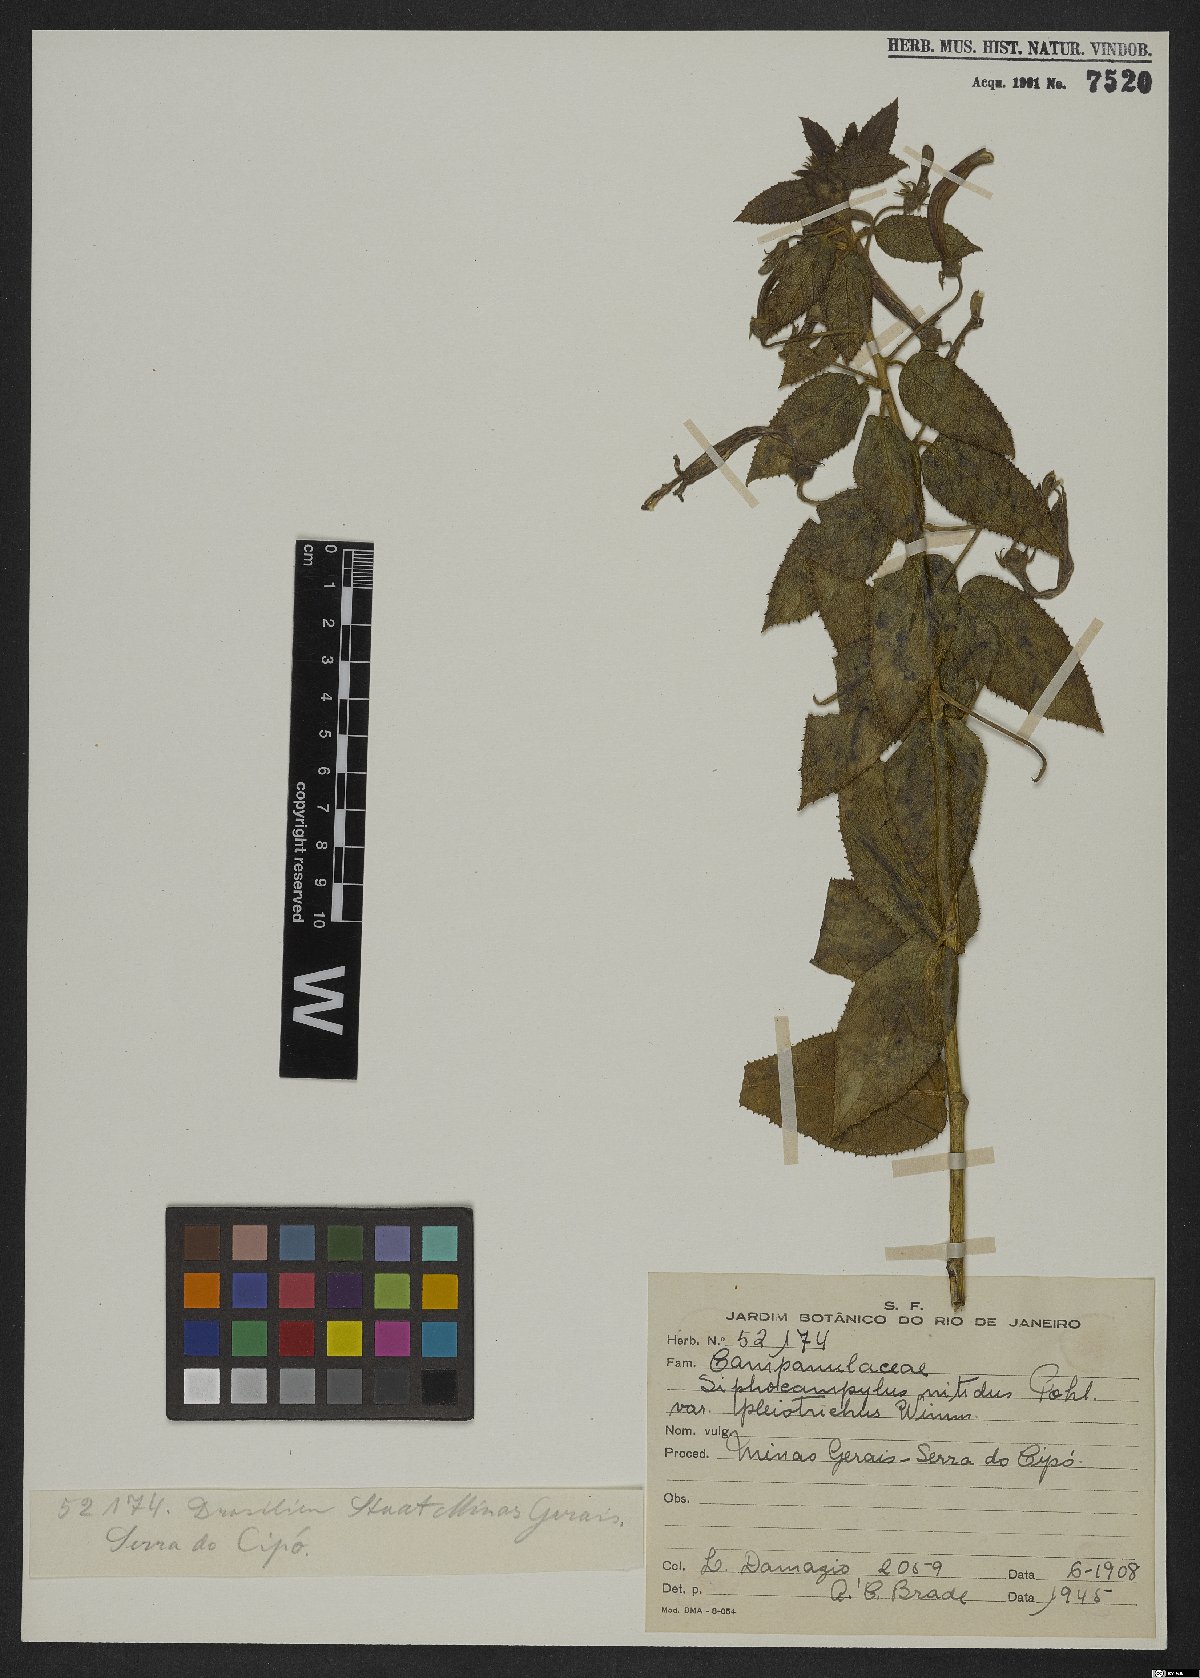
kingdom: Plantae
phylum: Tracheophyta
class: Magnoliopsida
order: Asterales
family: Campanulaceae
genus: Siphocampylus
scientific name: Siphocampylus nitidus
